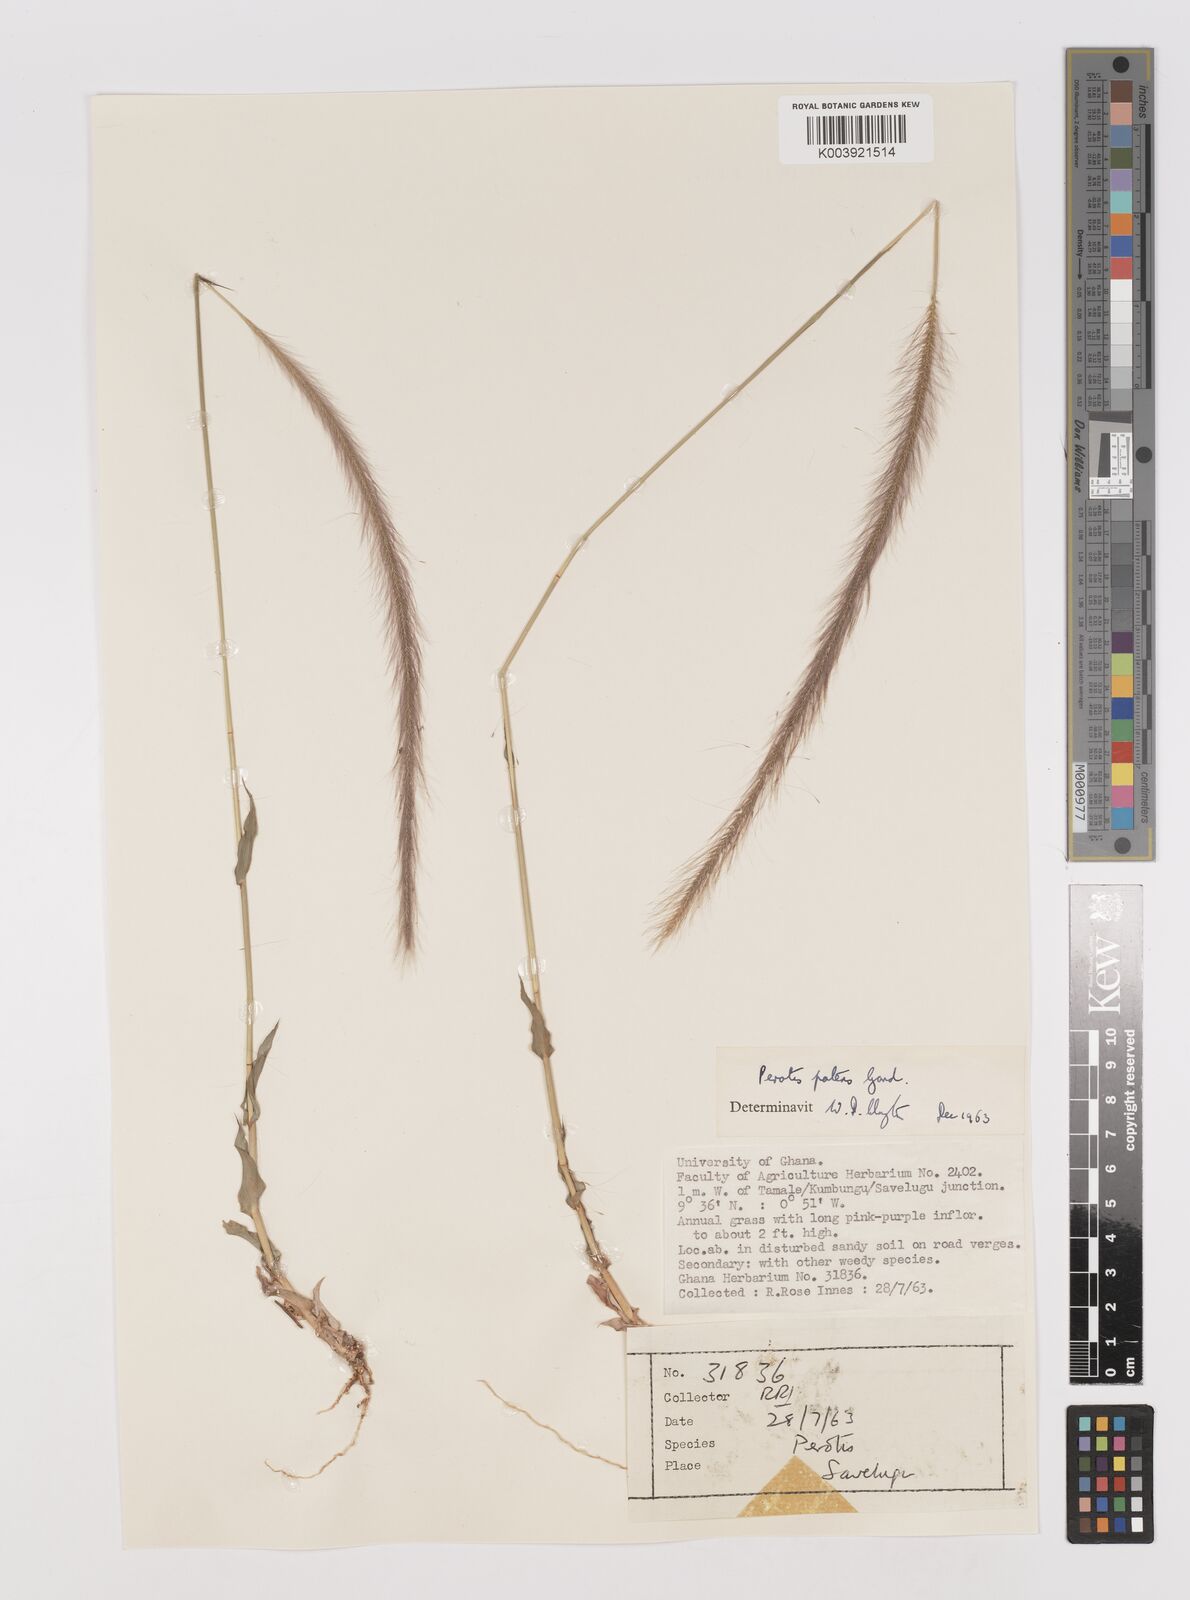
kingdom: Plantae
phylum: Tracheophyta
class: Liliopsida
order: Poales
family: Poaceae
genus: Perotis
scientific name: Perotis patens
